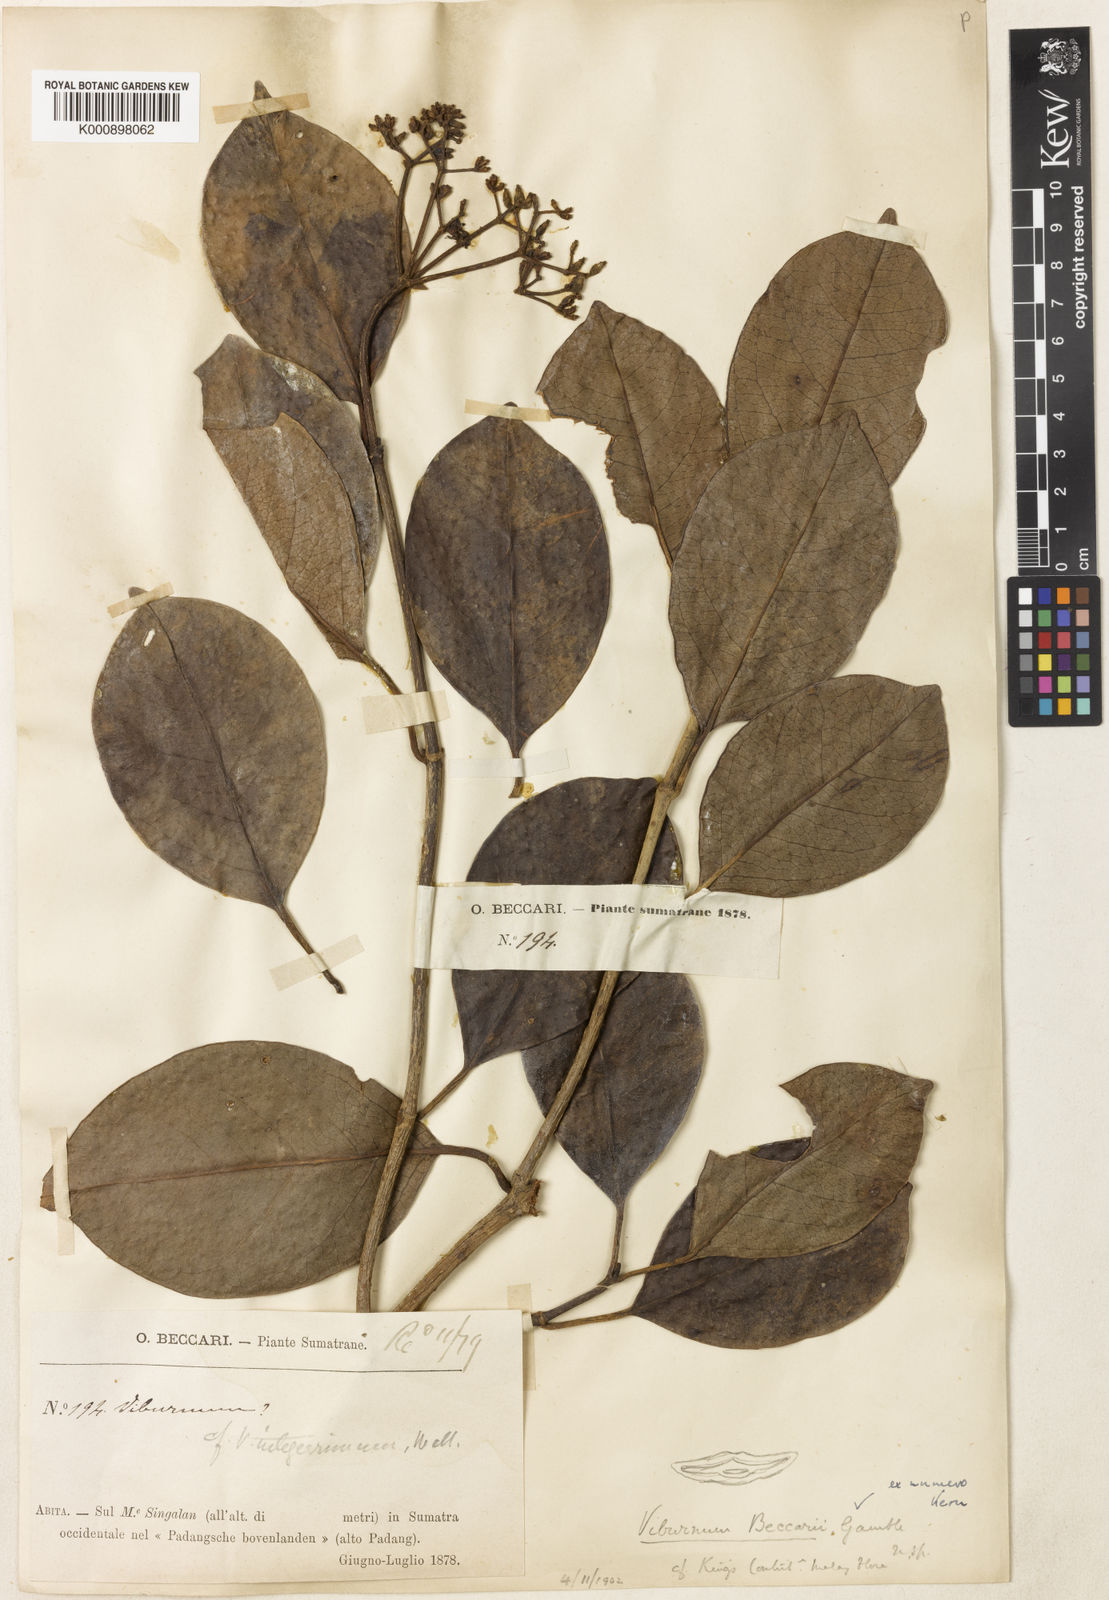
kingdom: Plantae
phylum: Tracheophyta
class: Magnoliopsida
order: Dipsacales
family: Viburnaceae
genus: Viburnum
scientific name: Viburnum beccarii
